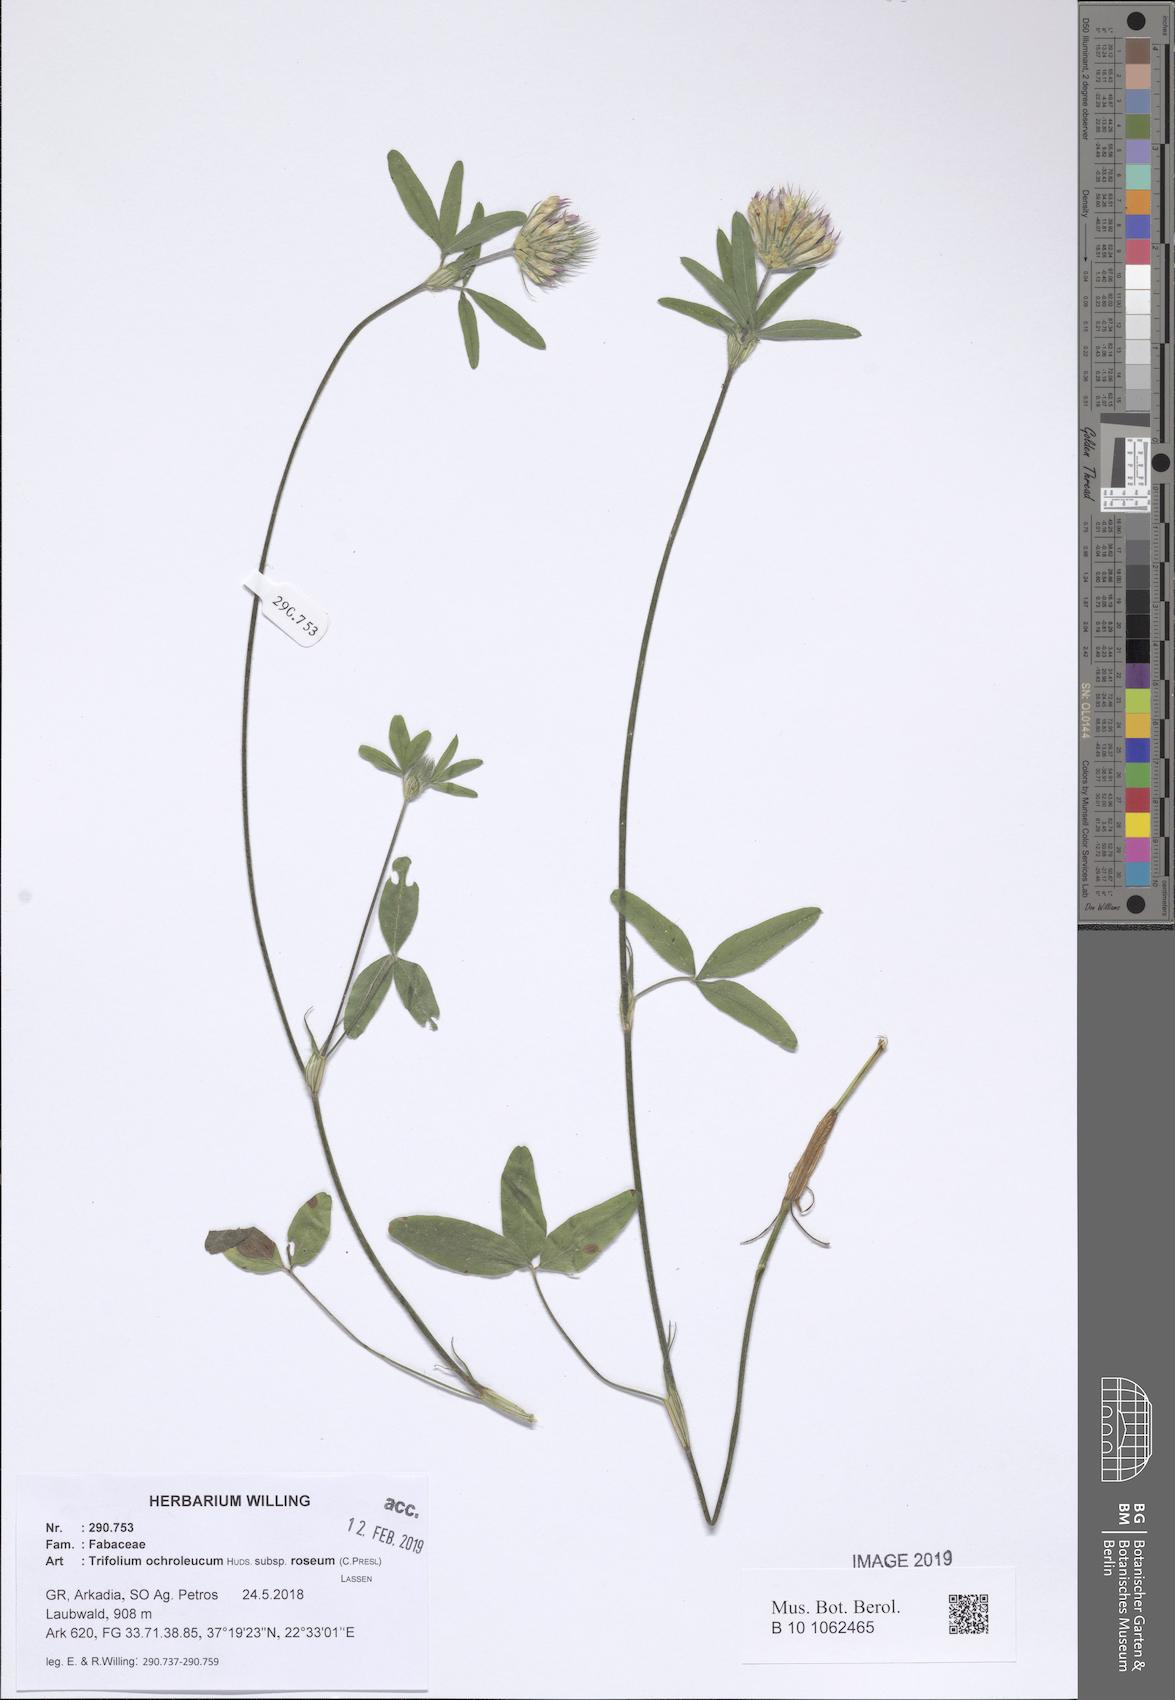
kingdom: Plantae
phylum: Tracheophyta
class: Magnoliopsida
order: Fabales
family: Fabaceae
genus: Trifolium
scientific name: Trifolium ochroleucon
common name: Sulphur clover
